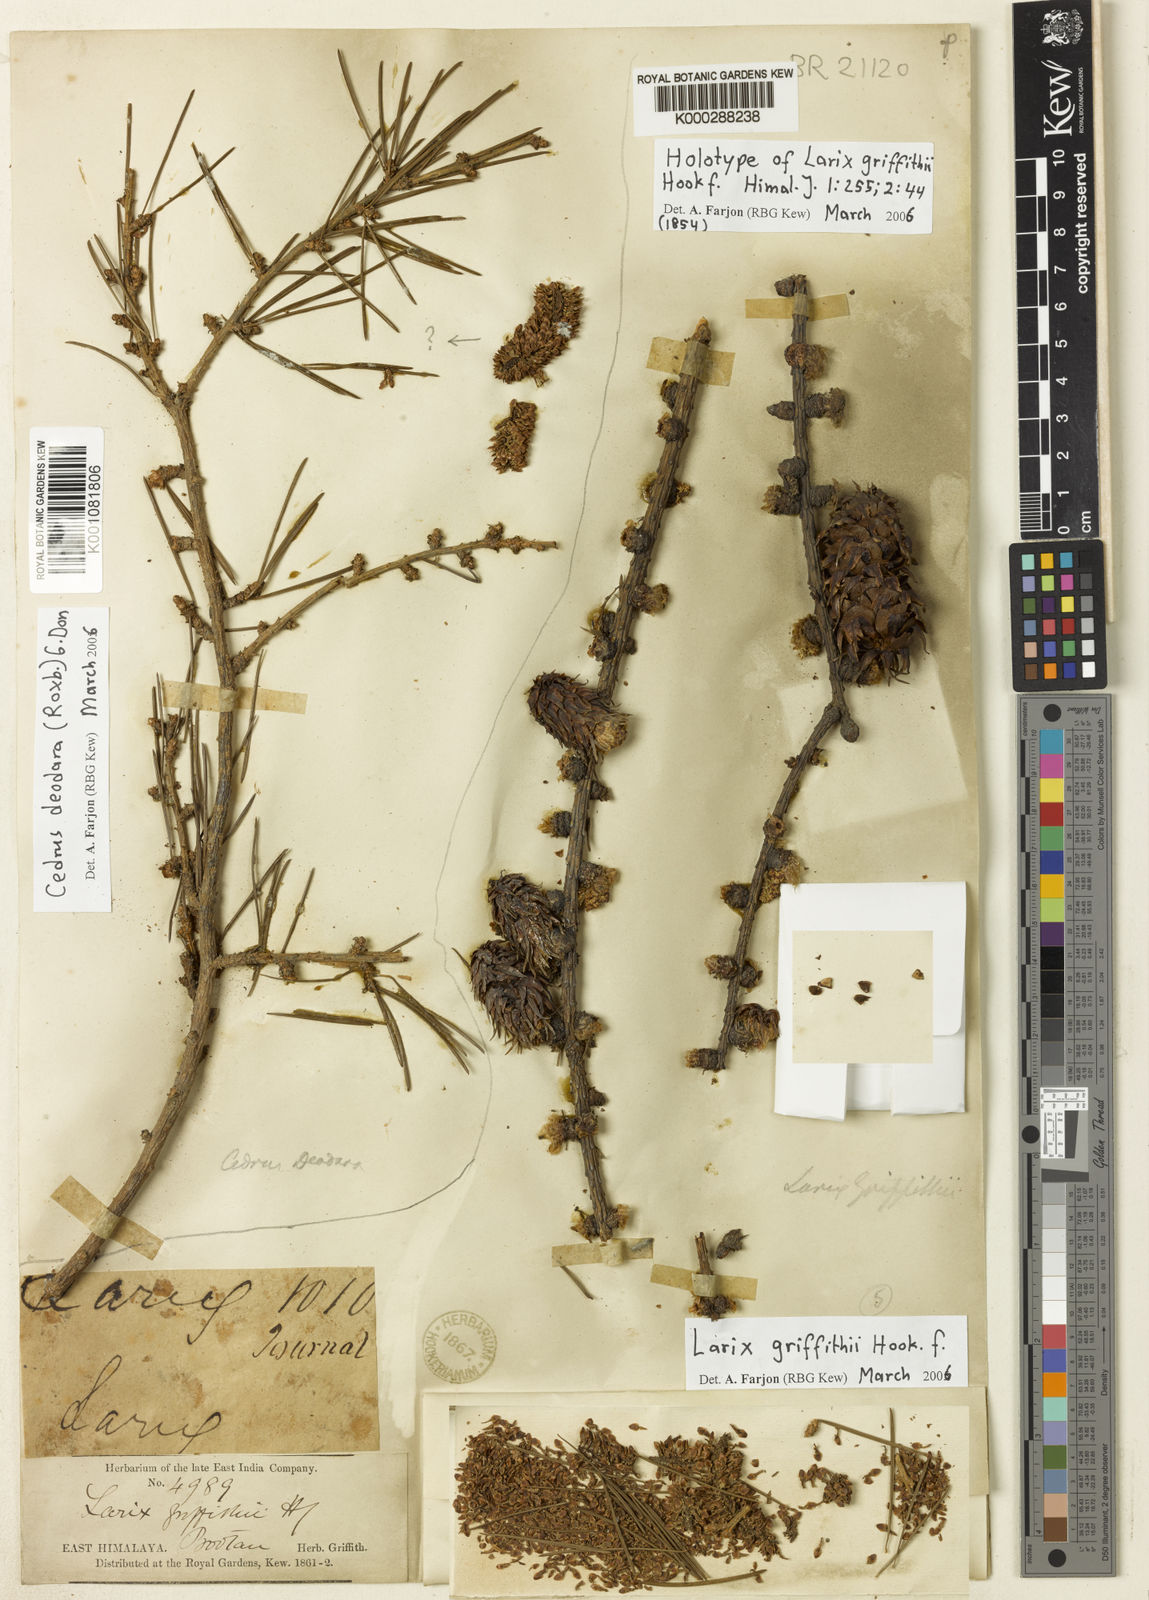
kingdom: Plantae
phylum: Tracheophyta
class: Pinopsida
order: Pinales
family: Pinaceae
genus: Larix
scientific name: Larix griffithii
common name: Sikkim larch
